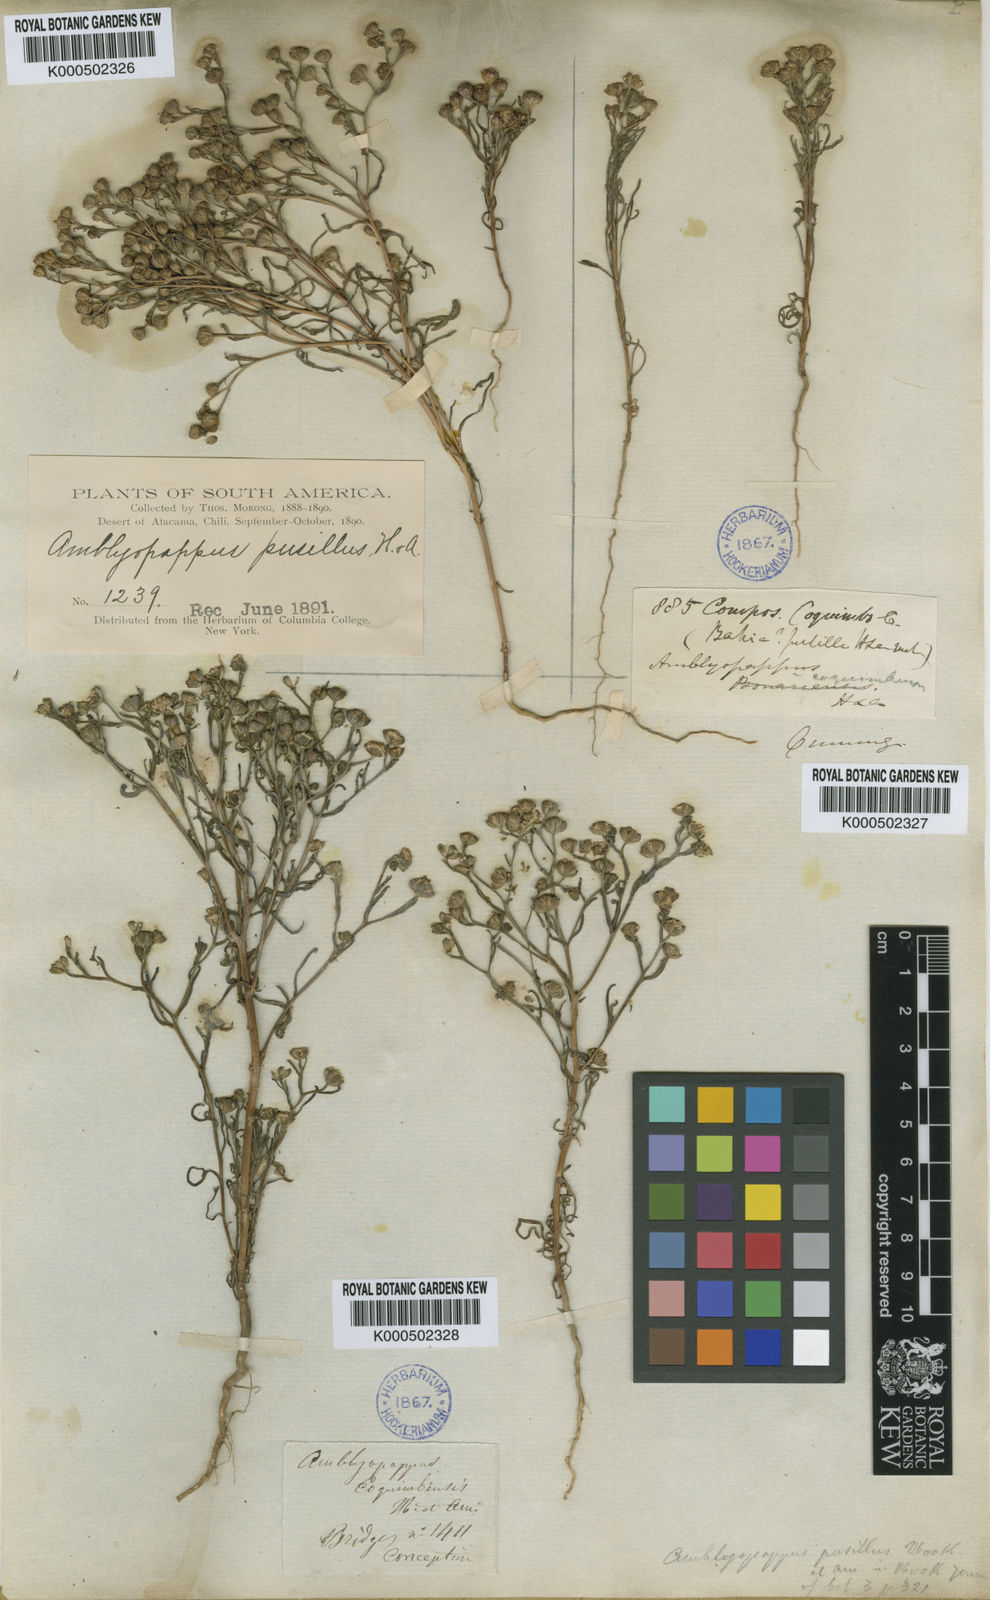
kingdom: Plantae
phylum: Tracheophyta
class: Magnoliopsida
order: Asterales
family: Asteraceae
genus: Amblyopappus
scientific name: Amblyopappus pusillus
